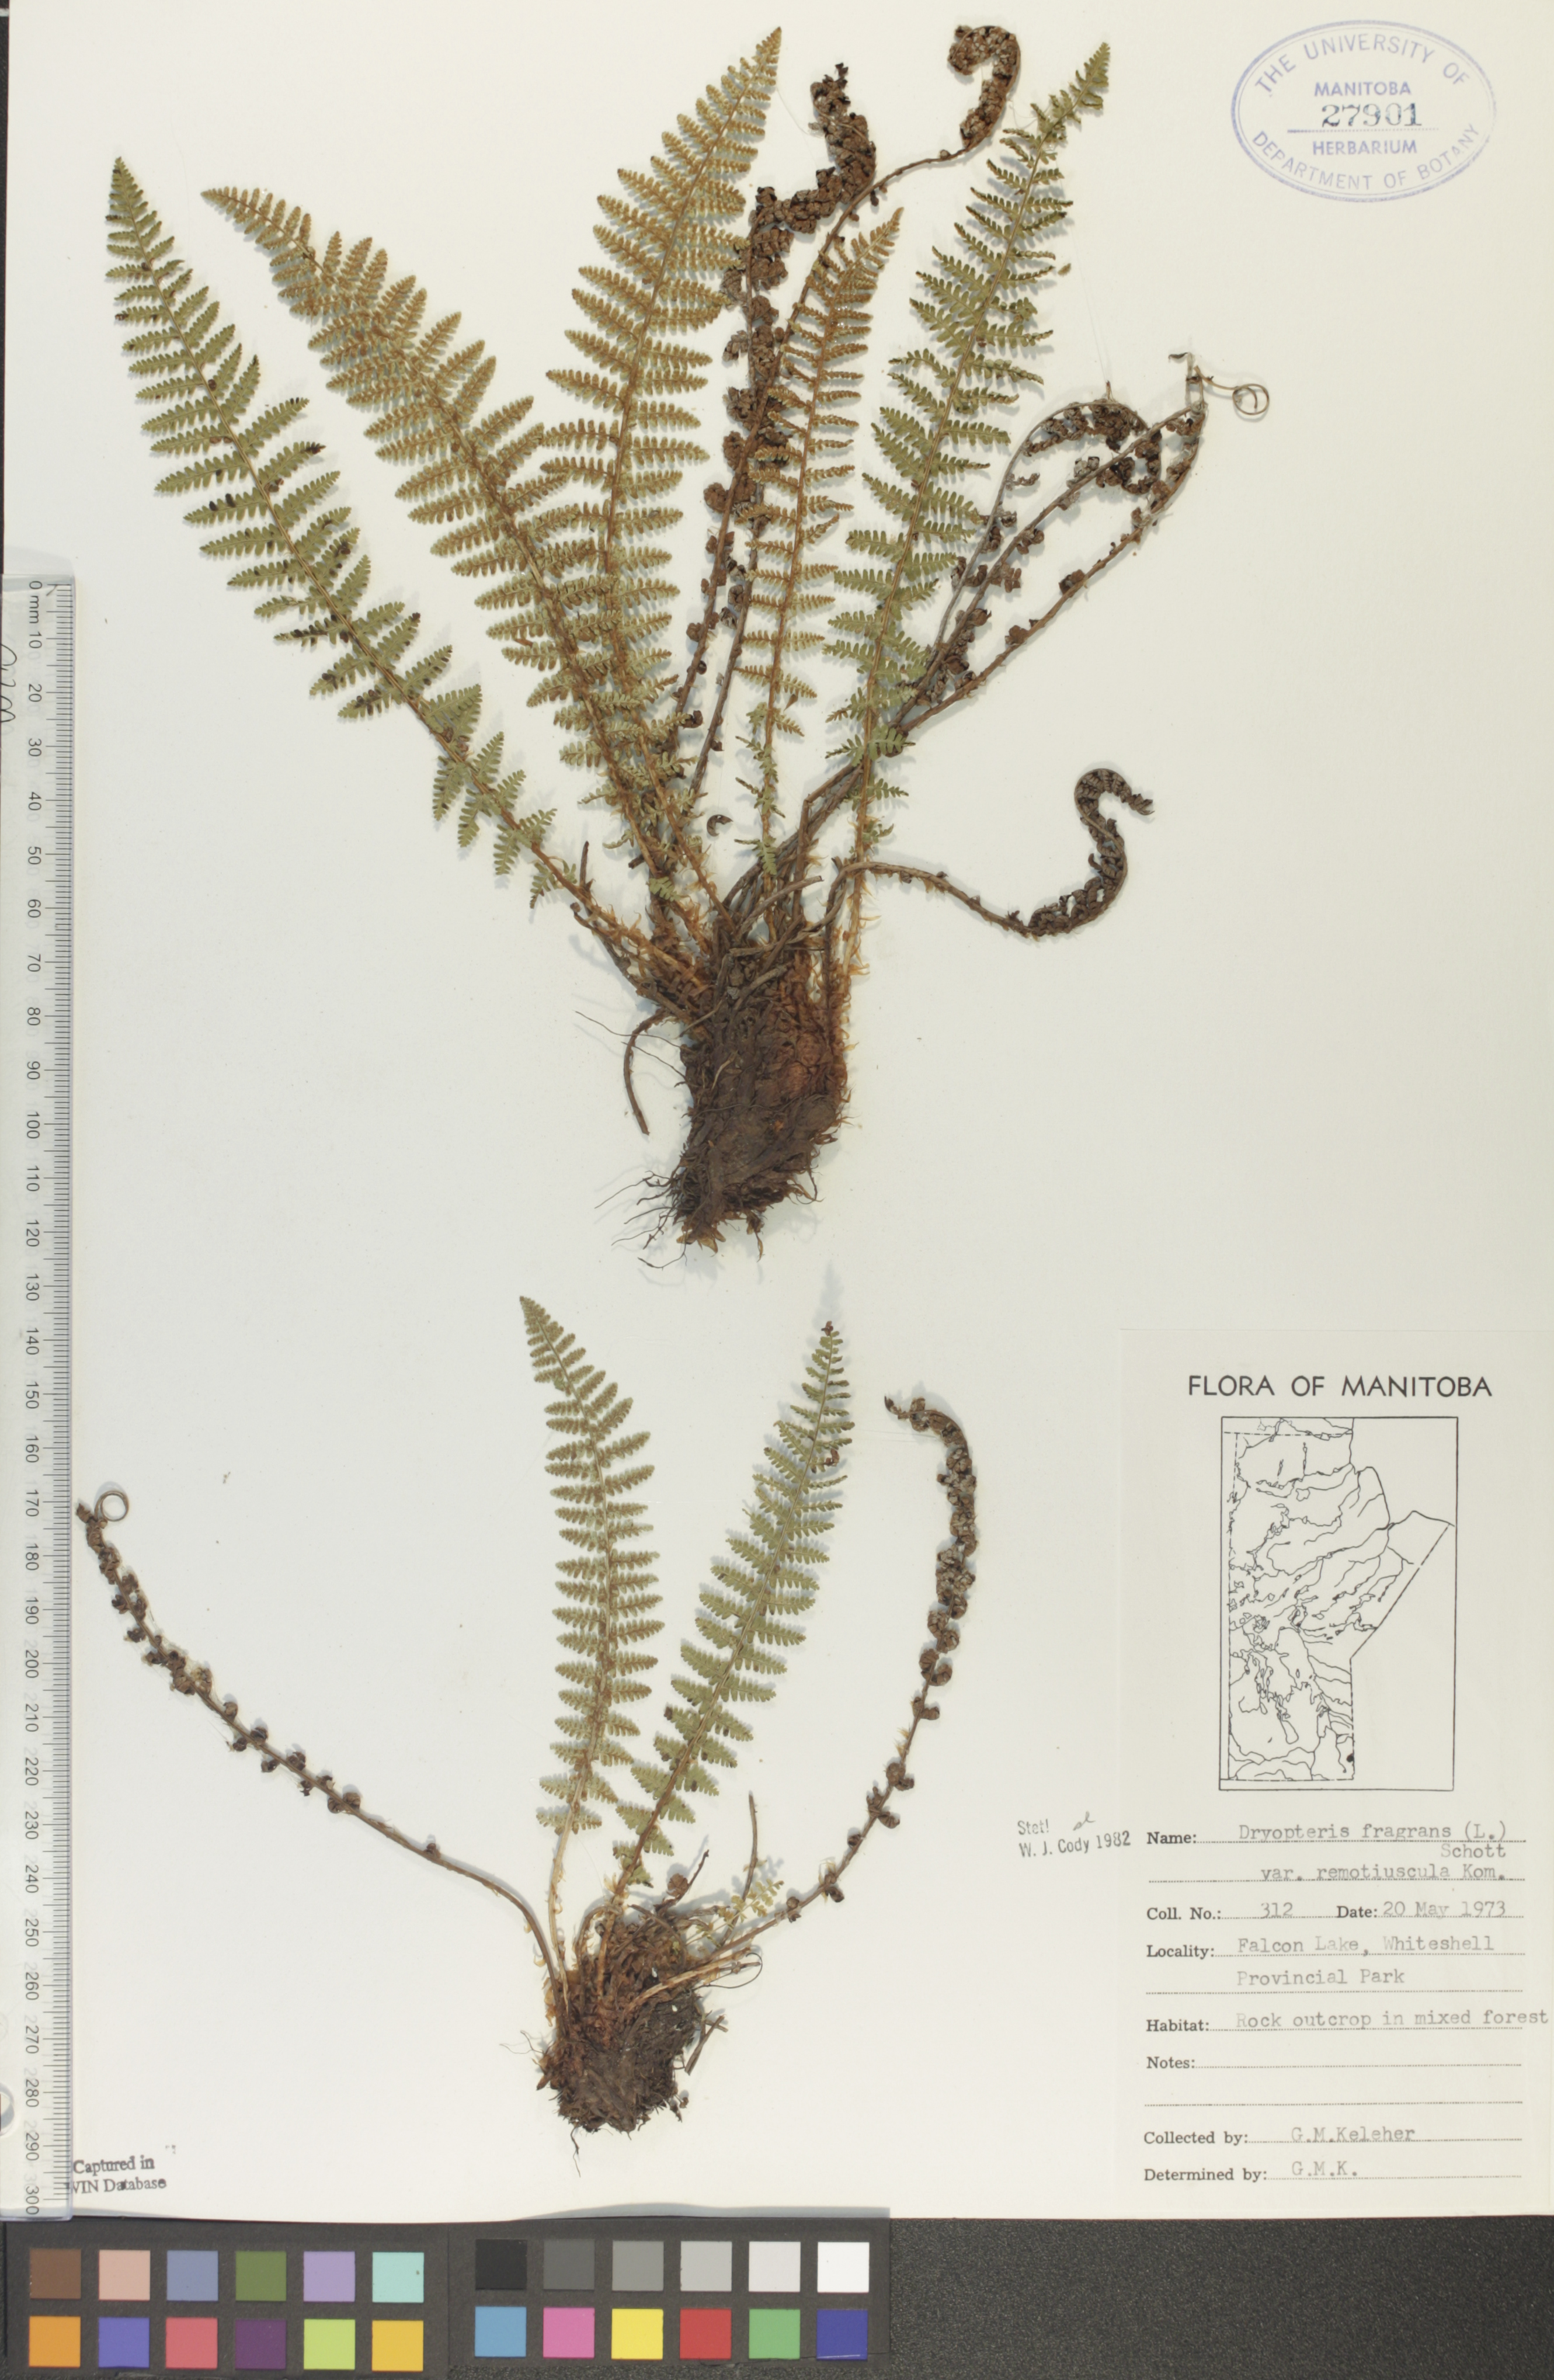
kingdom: Plantae
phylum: Tracheophyta
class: Polypodiopsida
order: Polypodiales
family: Dryopteridaceae
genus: Dryopteris
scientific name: Dryopteris fragrans
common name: Fragrant wood fern
